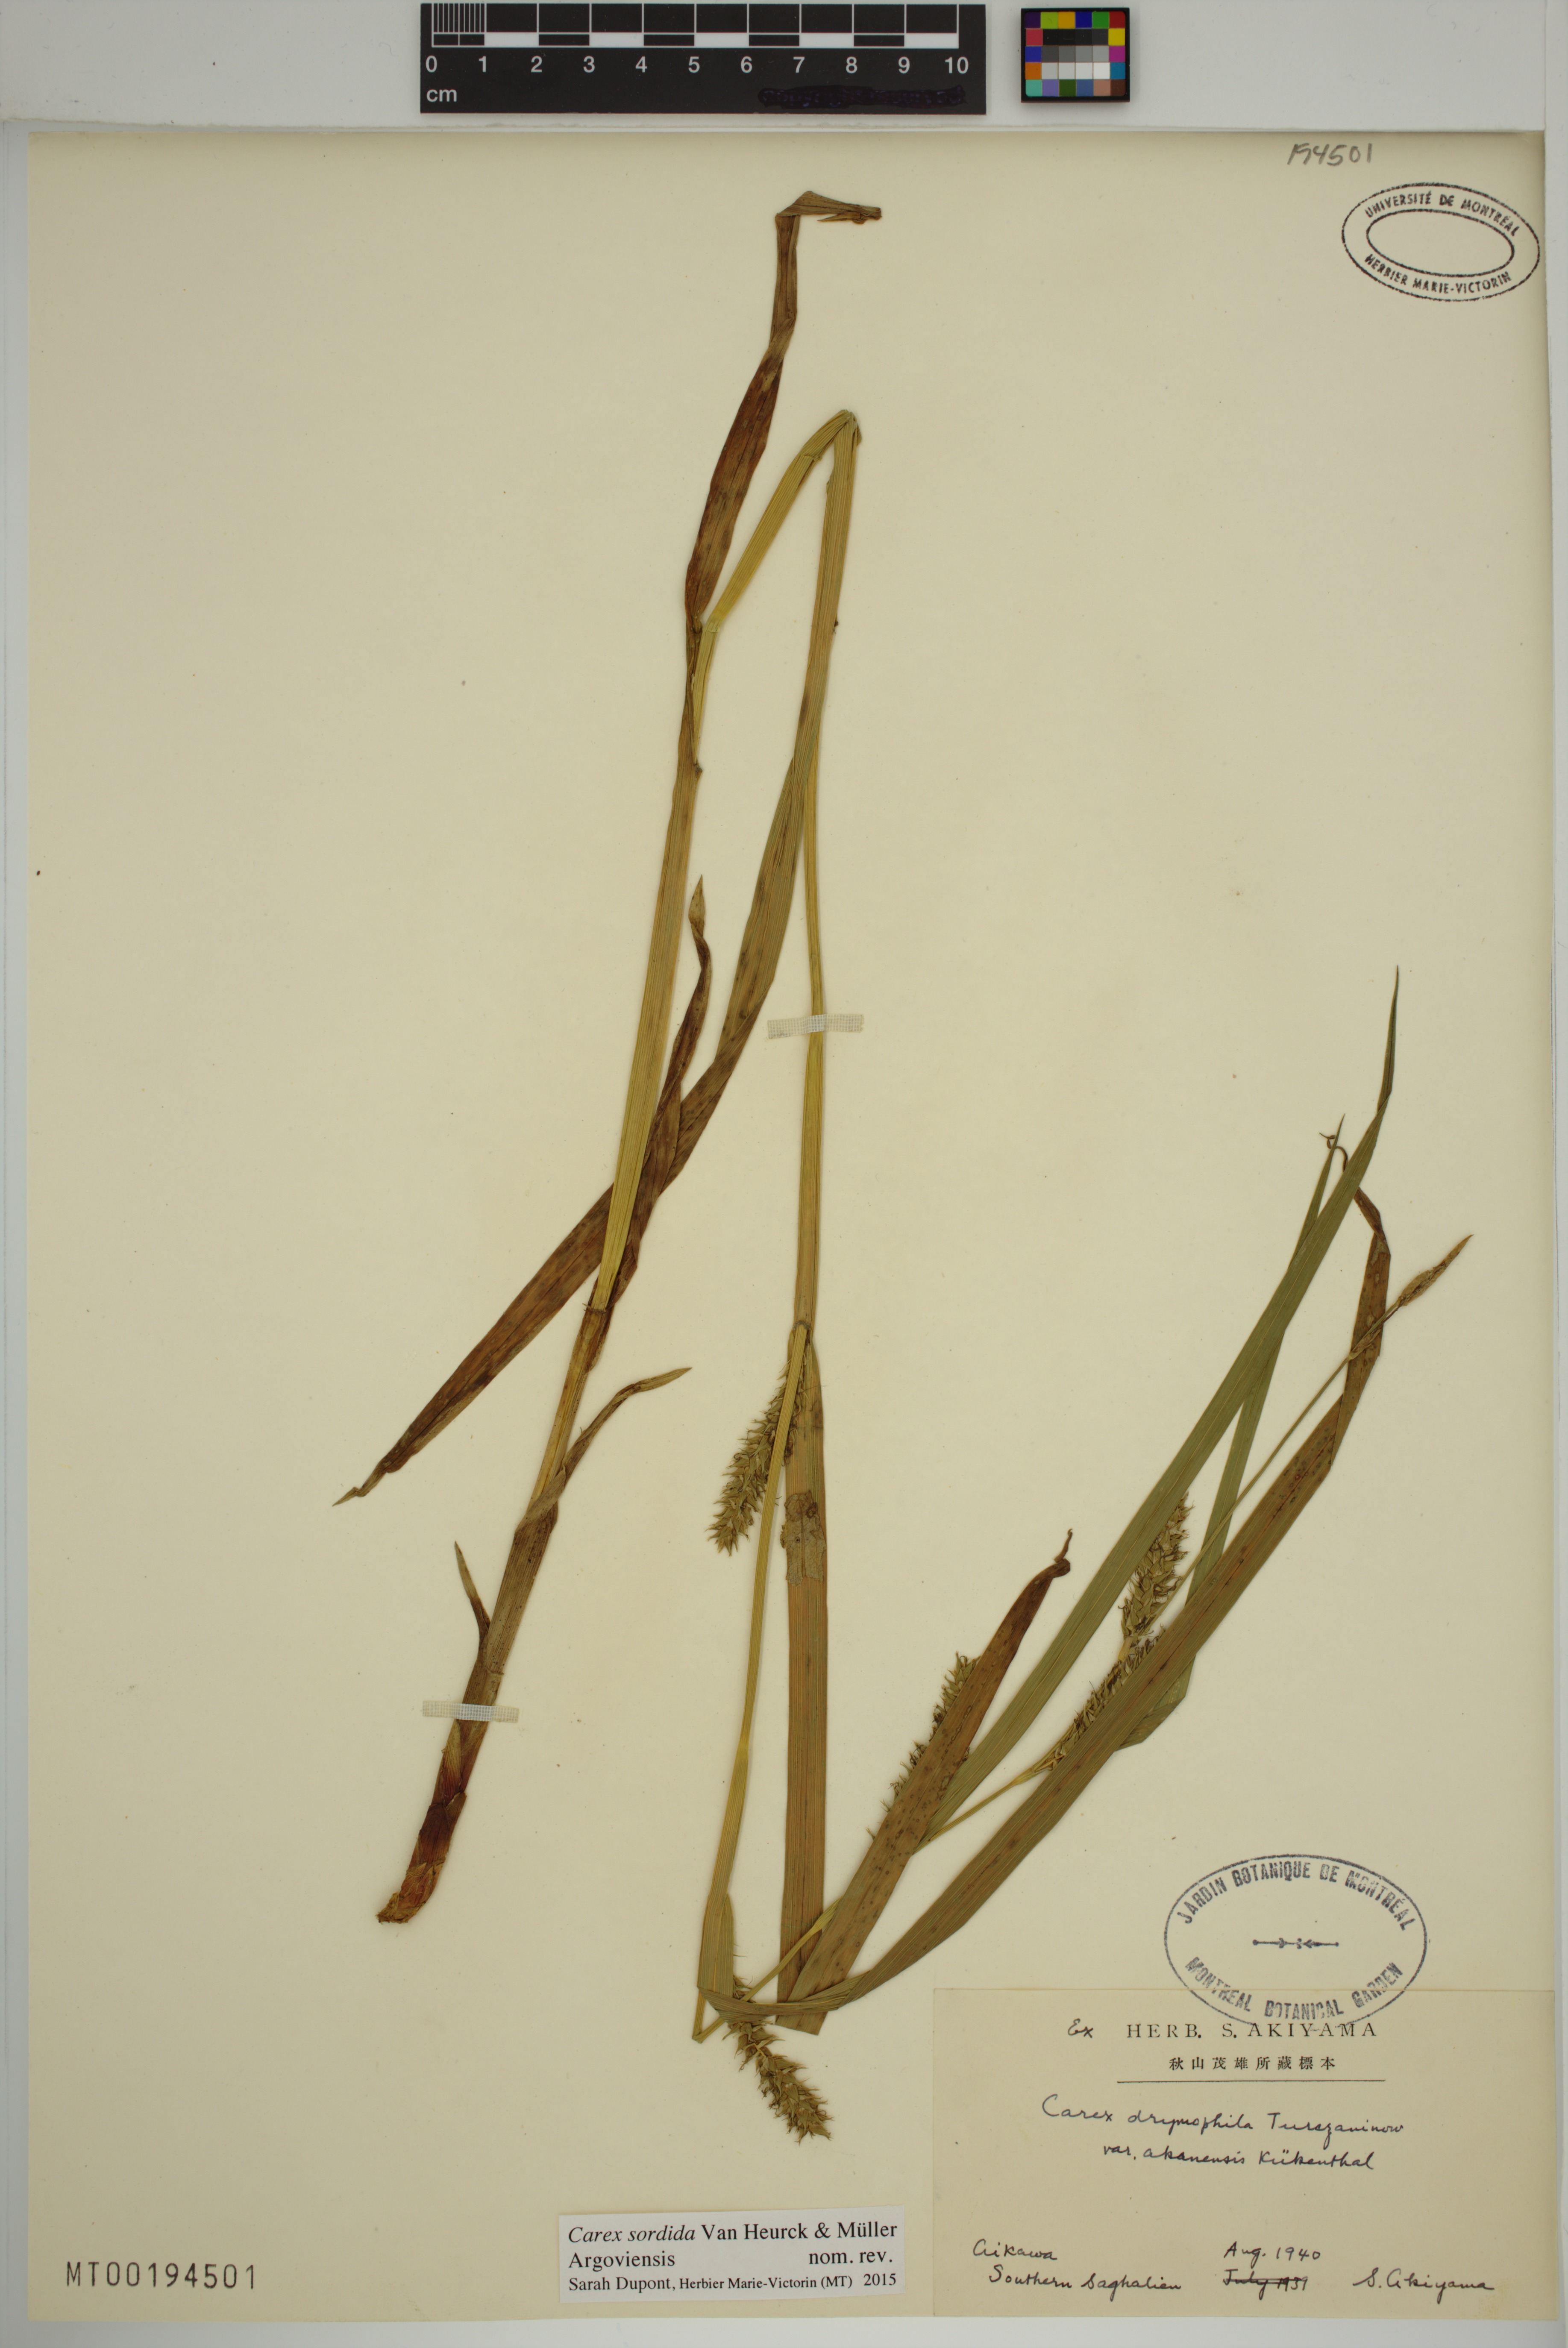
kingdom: Plantae
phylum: Tracheophyta
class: Liliopsida
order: Poales
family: Cyperaceae
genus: Carex
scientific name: Carex sordida
